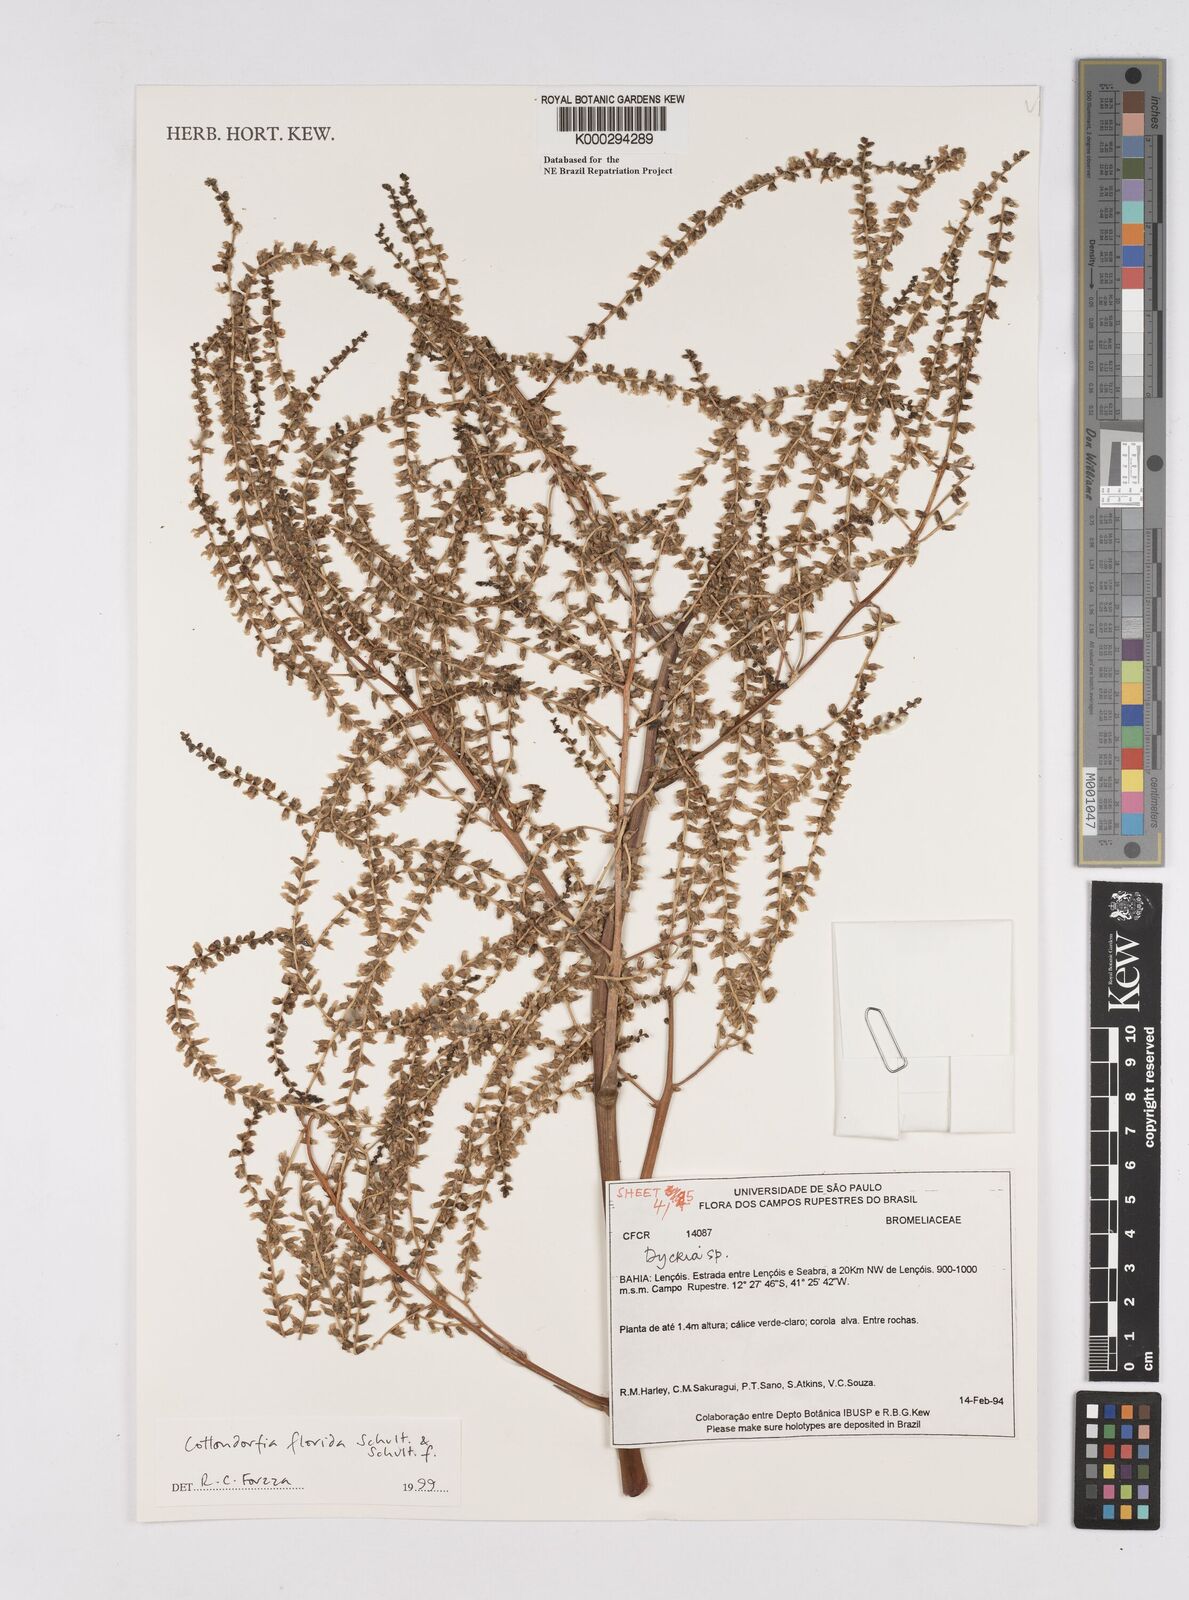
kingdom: Plantae
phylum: Tracheophyta
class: Liliopsida
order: Poales
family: Bromeliaceae
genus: Cottendorfia
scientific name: Cottendorfia florida
